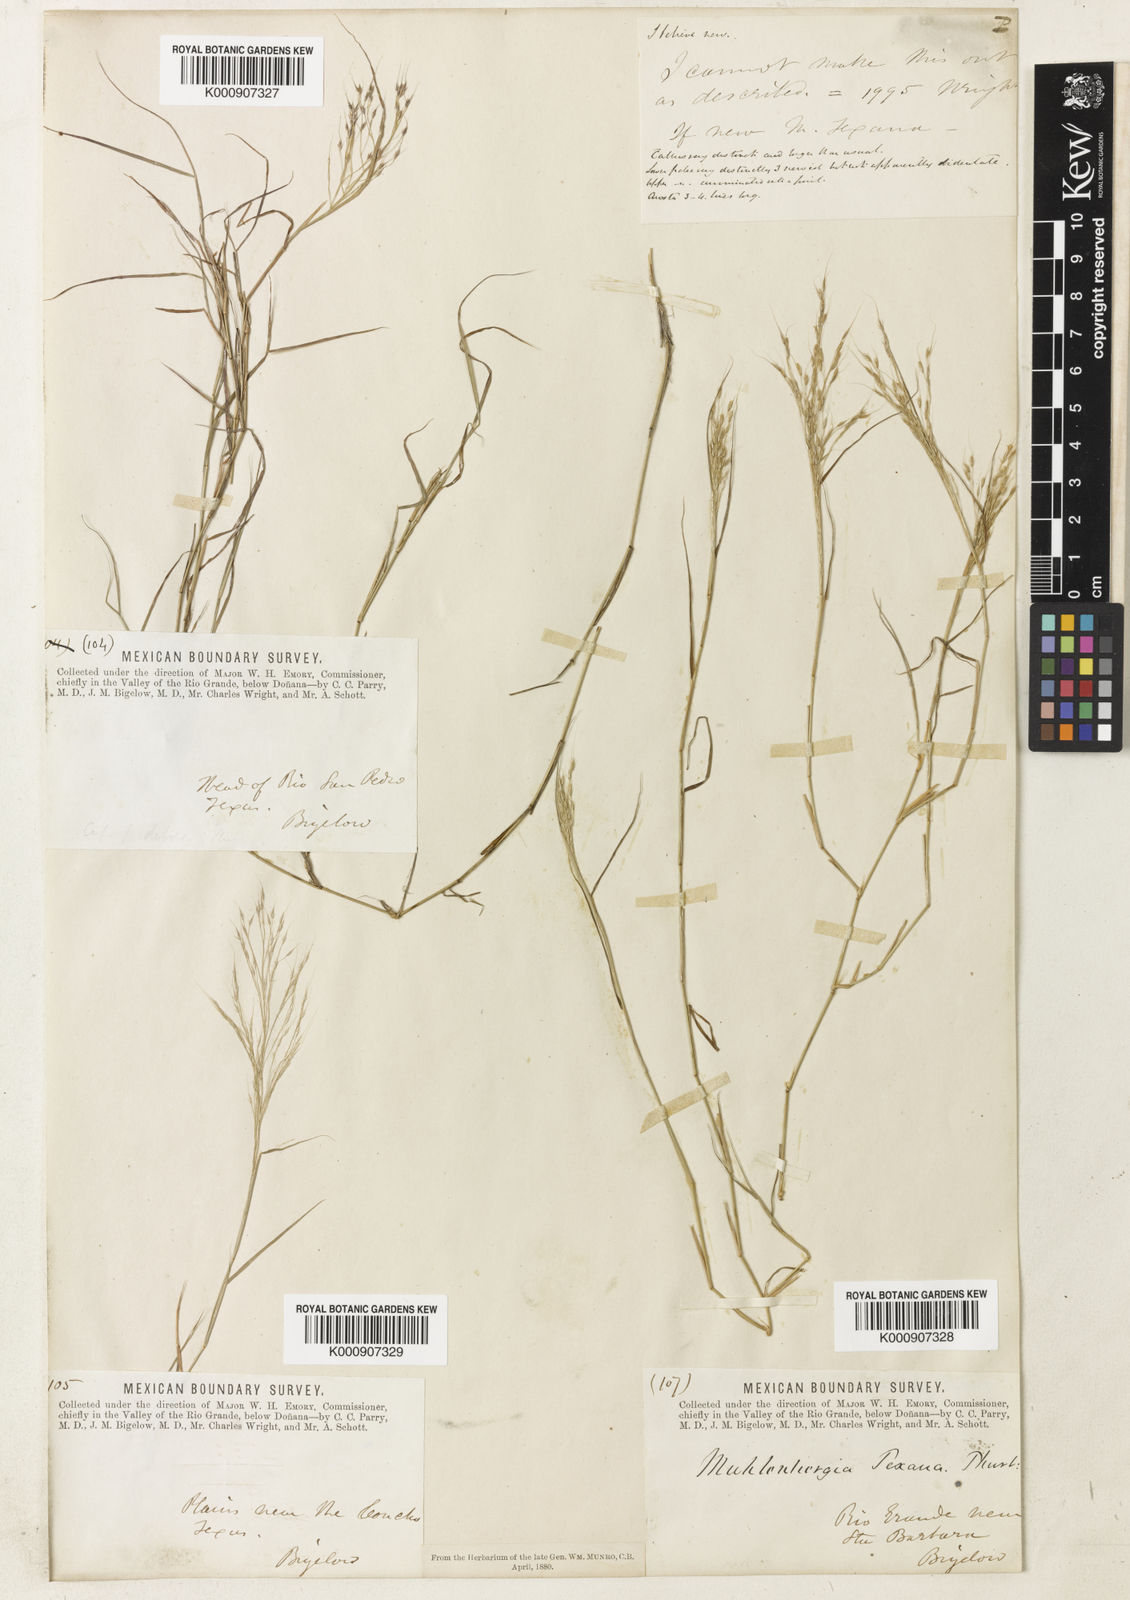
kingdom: Plantae
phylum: Tracheophyta
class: Liliopsida
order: Poales
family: Poaceae
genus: Muhlenbergia
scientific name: Muhlenbergia porteri
